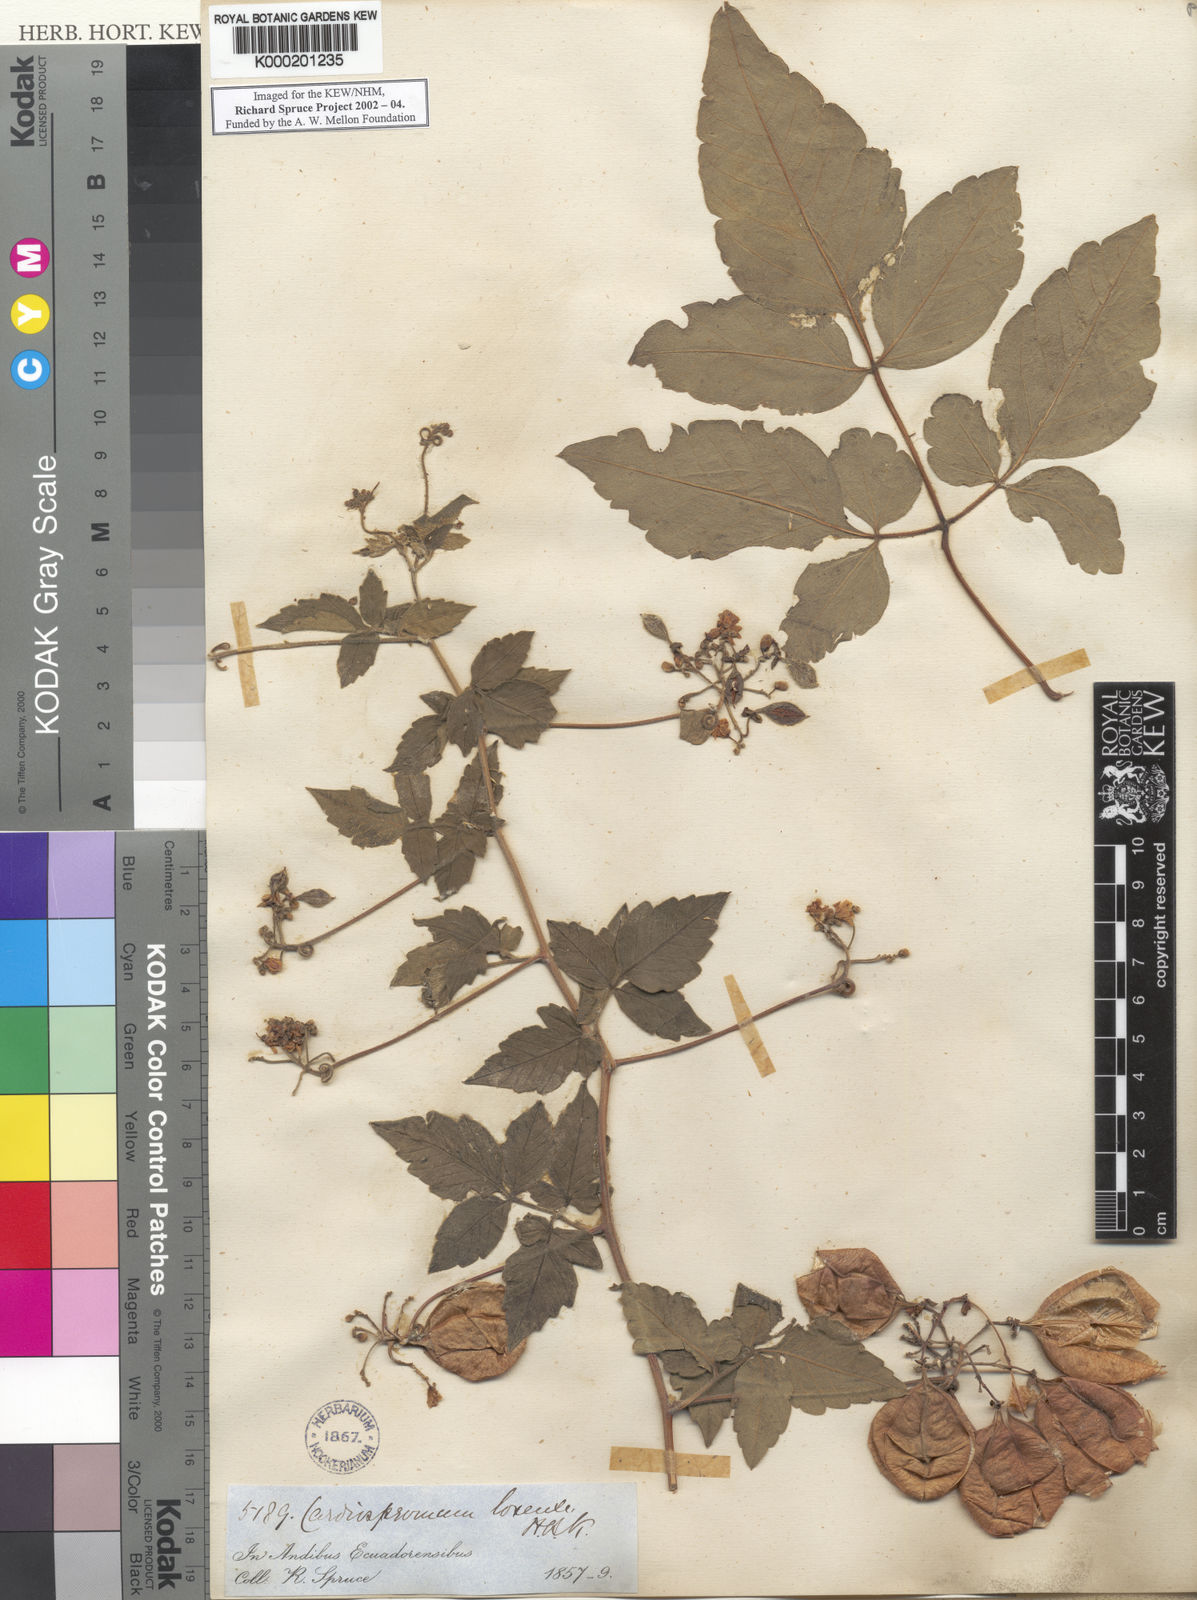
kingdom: Plantae
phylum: Tracheophyta
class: Magnoliopsida
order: Sapindales
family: Sapindaceae
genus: Cardiospermum
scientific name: Cardiospermum corindum
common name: Faux persil
